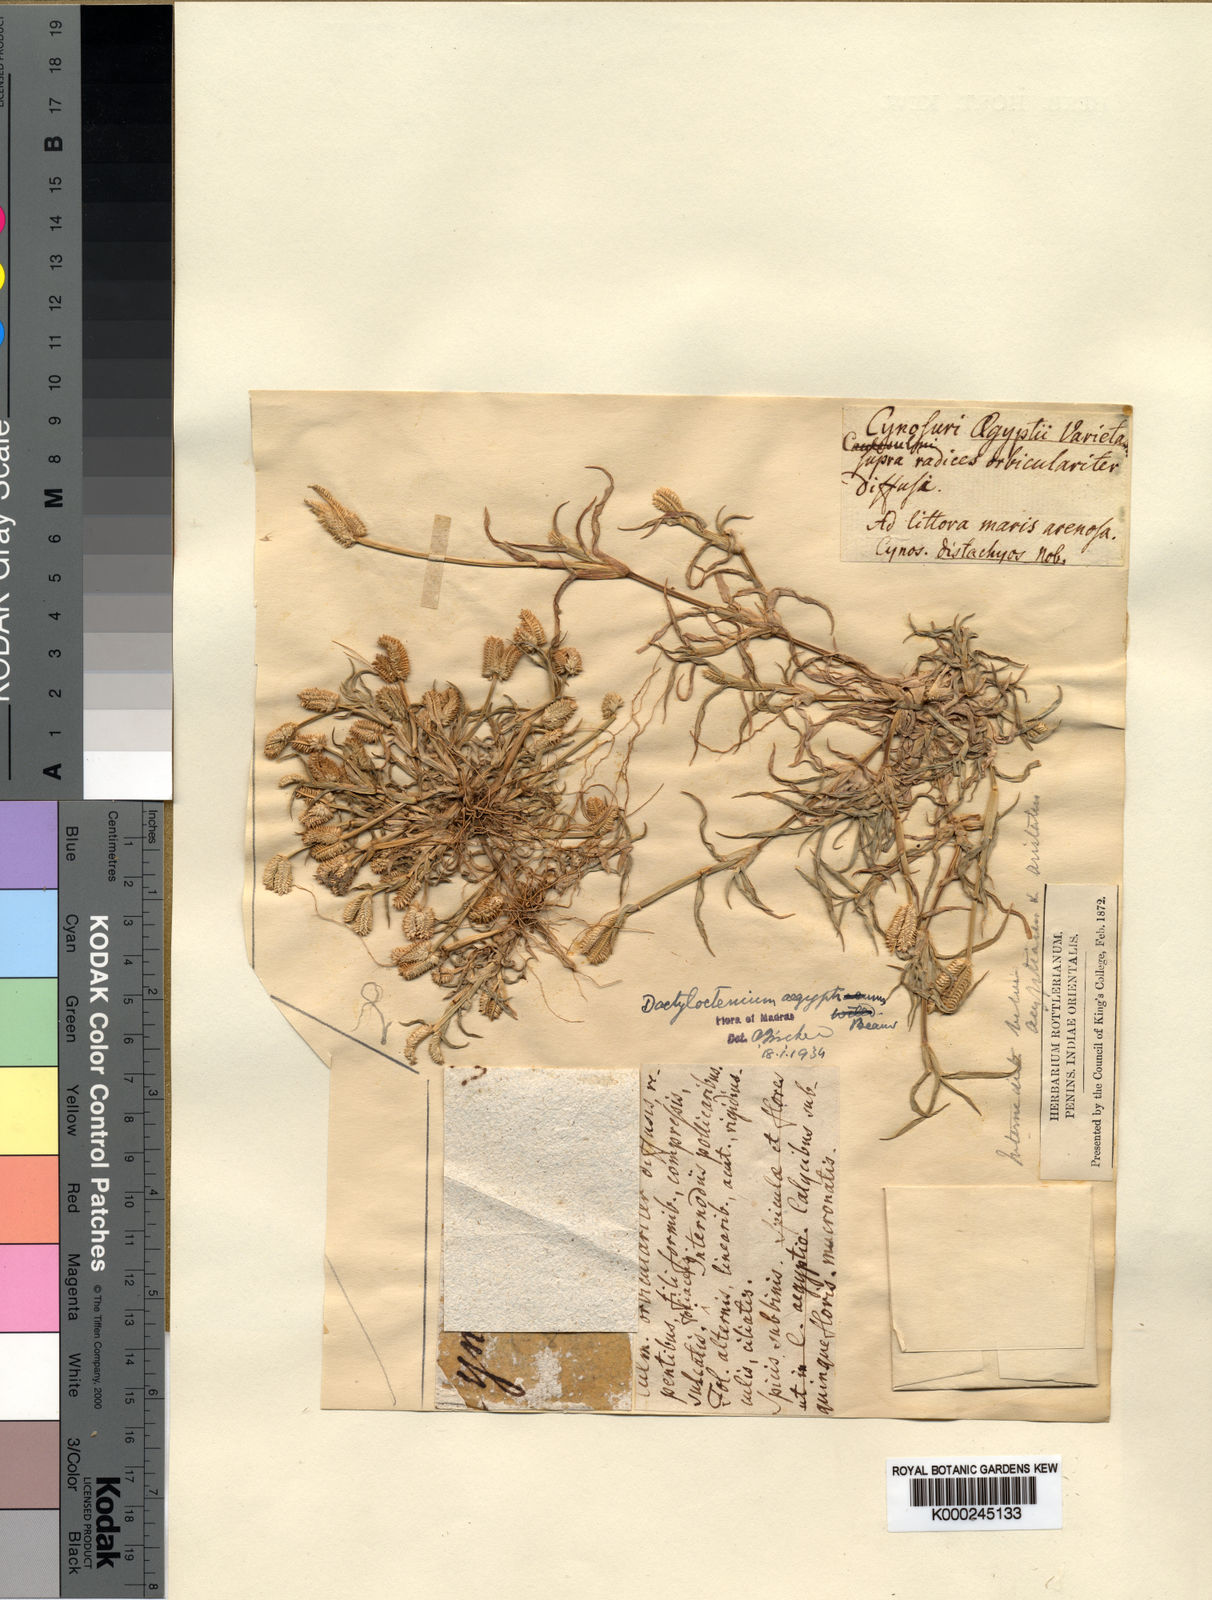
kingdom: Plantae
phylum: Tracheophyta
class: Liliopsida
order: Poales
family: Poaceae
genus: Dactyloctenium
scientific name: Dactyloctenium aegyptium
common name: Egyptian grass
